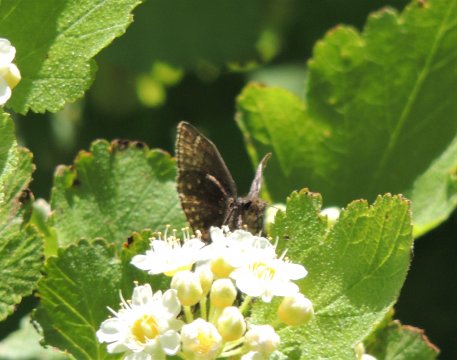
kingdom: Animalia
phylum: Arthropoda
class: Insecta
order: Lepidoptera
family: Hesperiidae
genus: Gesta
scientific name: Gesta
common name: Persius Duskywing
